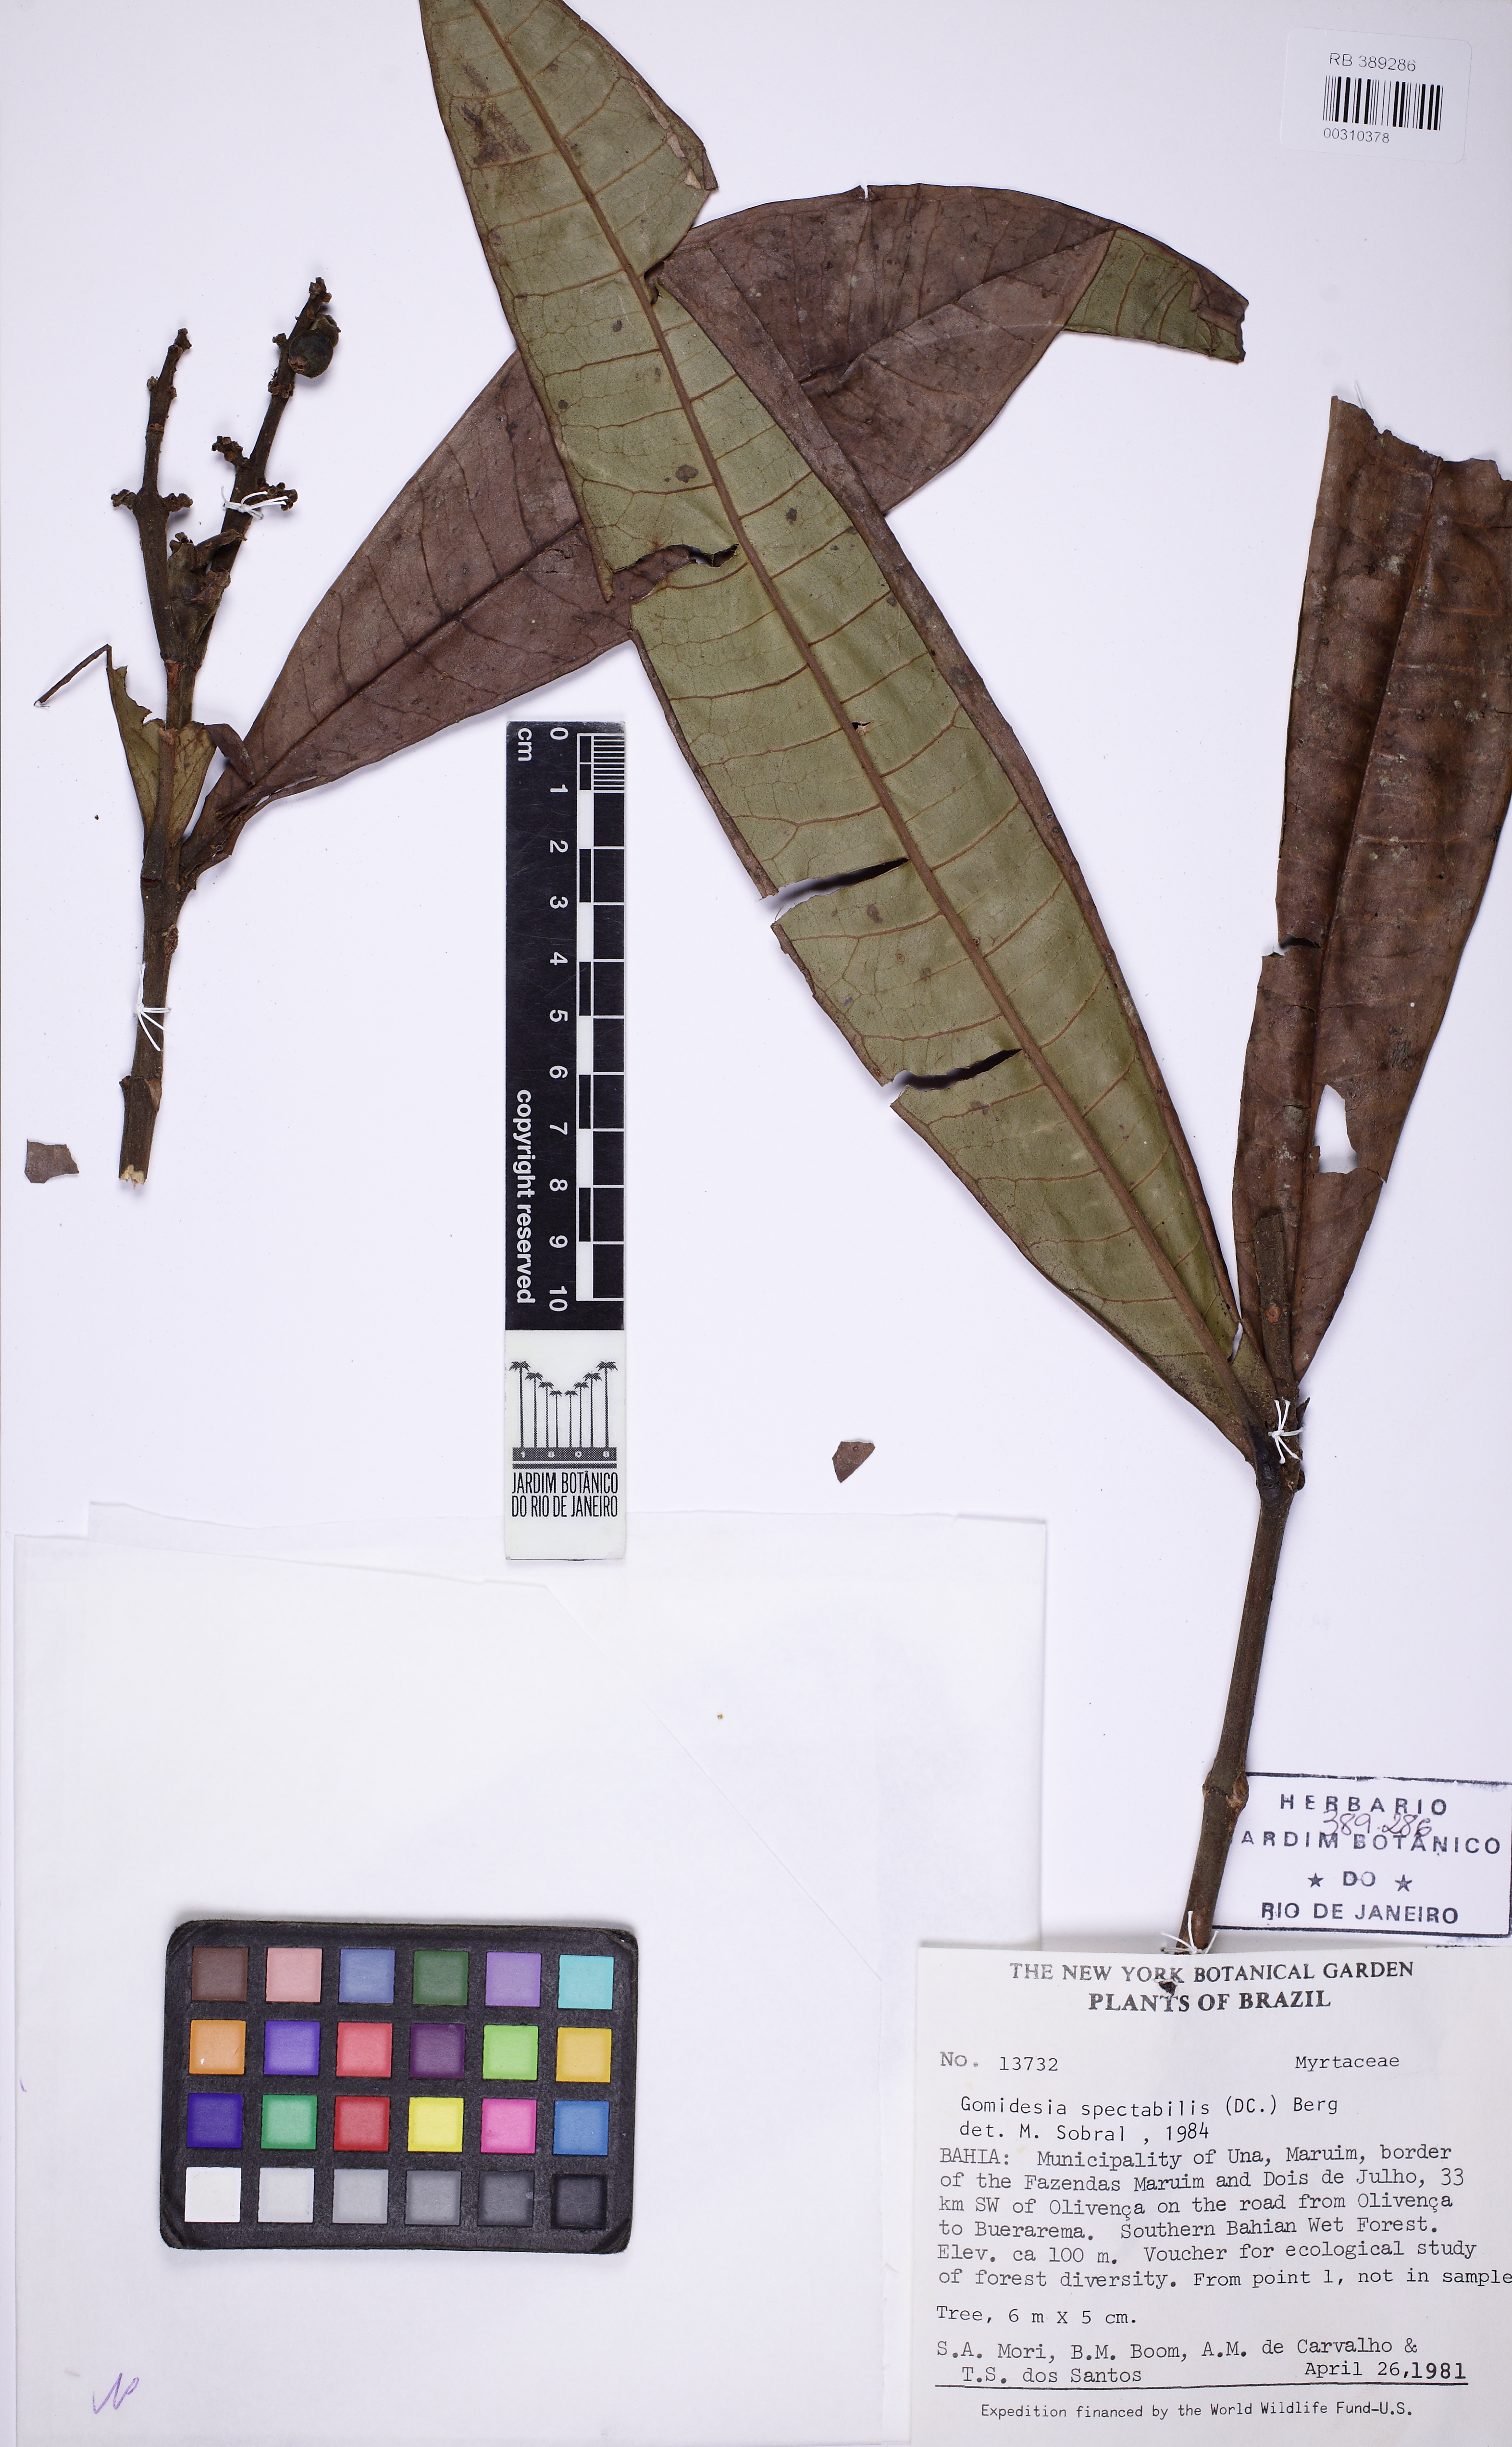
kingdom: Plantae
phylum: Tracheophyta
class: Magnoliopsida
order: Myrtales
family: Myrtaceae
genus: Myrcia
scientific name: Myrcia springiana
